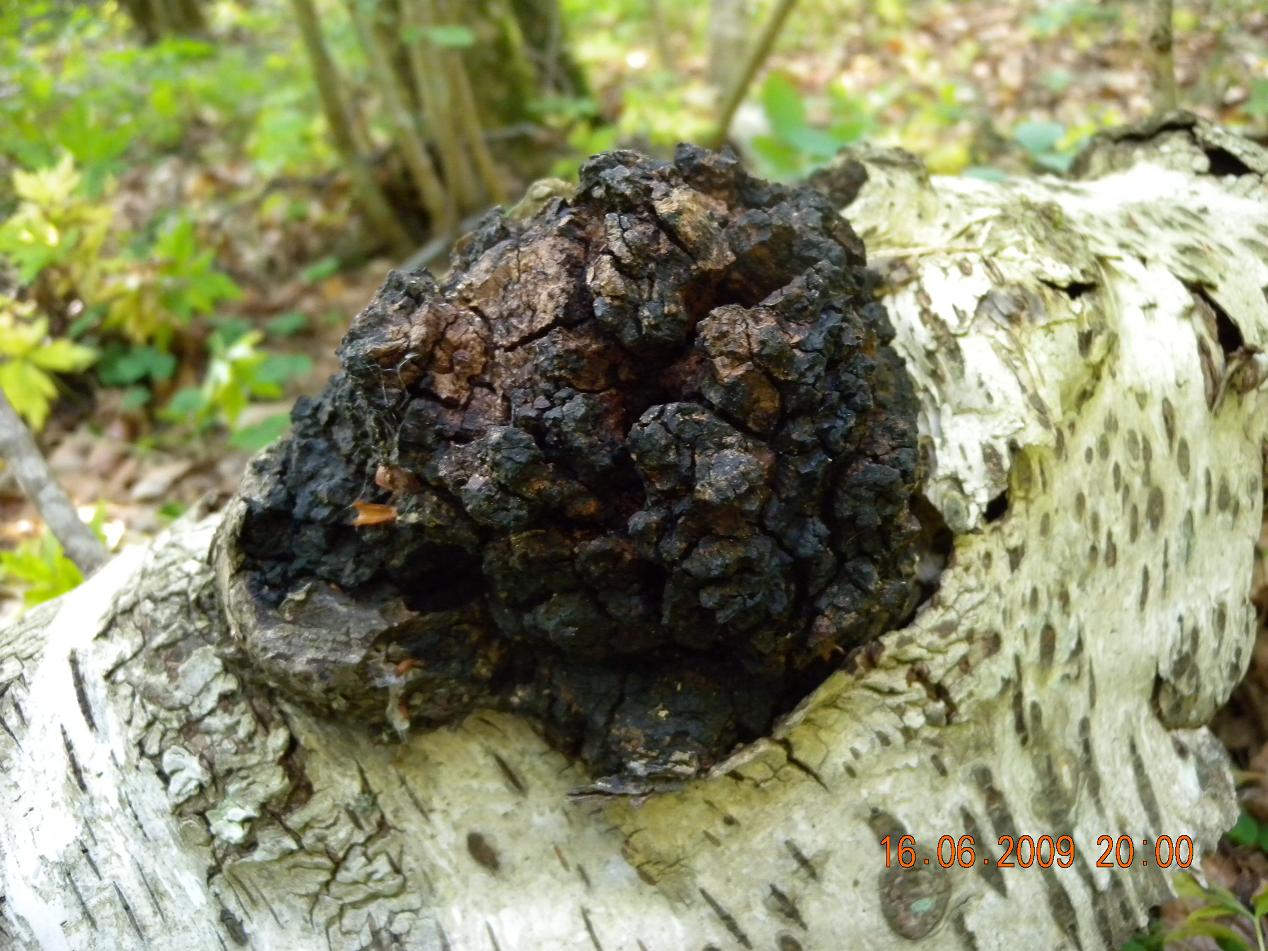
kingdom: Fungi
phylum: Basidiomycota
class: Agaricomycetes
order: Hymenochaetales
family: Hymenochaetaceae
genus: Inonotus
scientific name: Inonotus obliquus
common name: birke-spejlporesvamp
